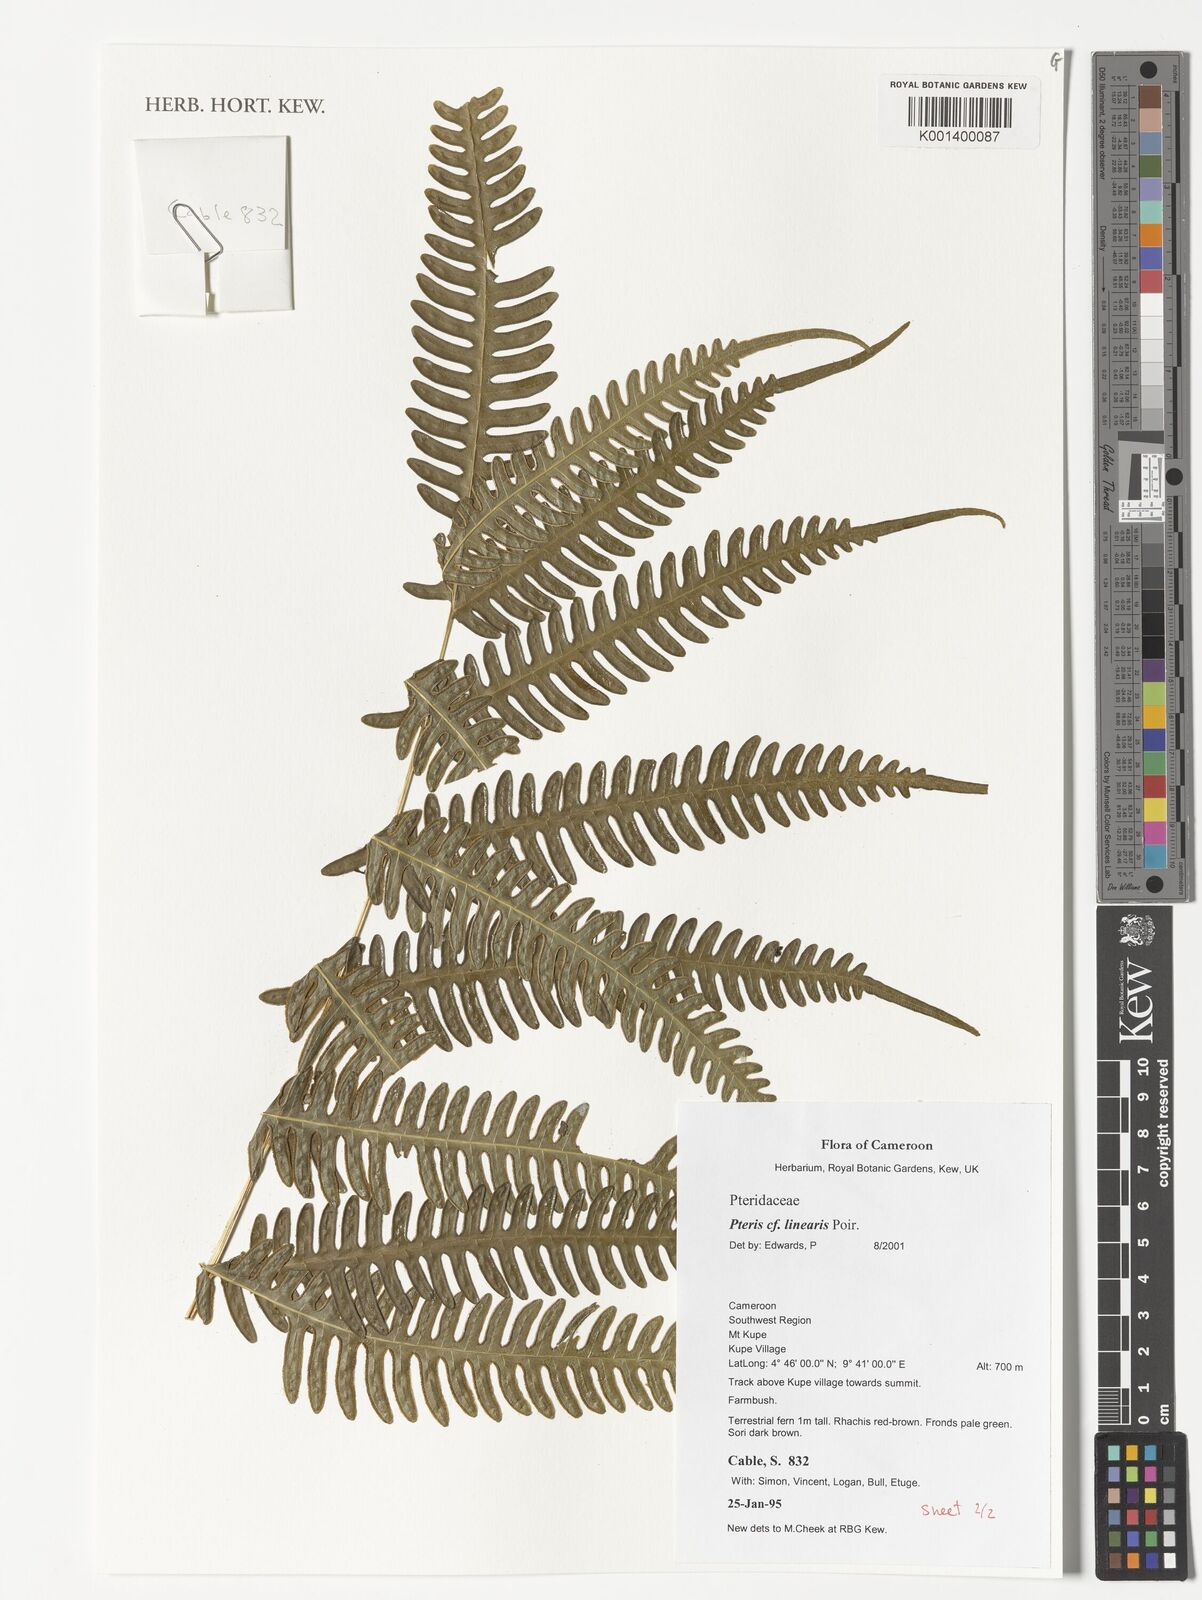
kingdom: Plantae
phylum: Tracheophyta
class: Polypodiopsida
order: Polypodiales
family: Pteridaceae
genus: Pteris
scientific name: Pteris linearis
